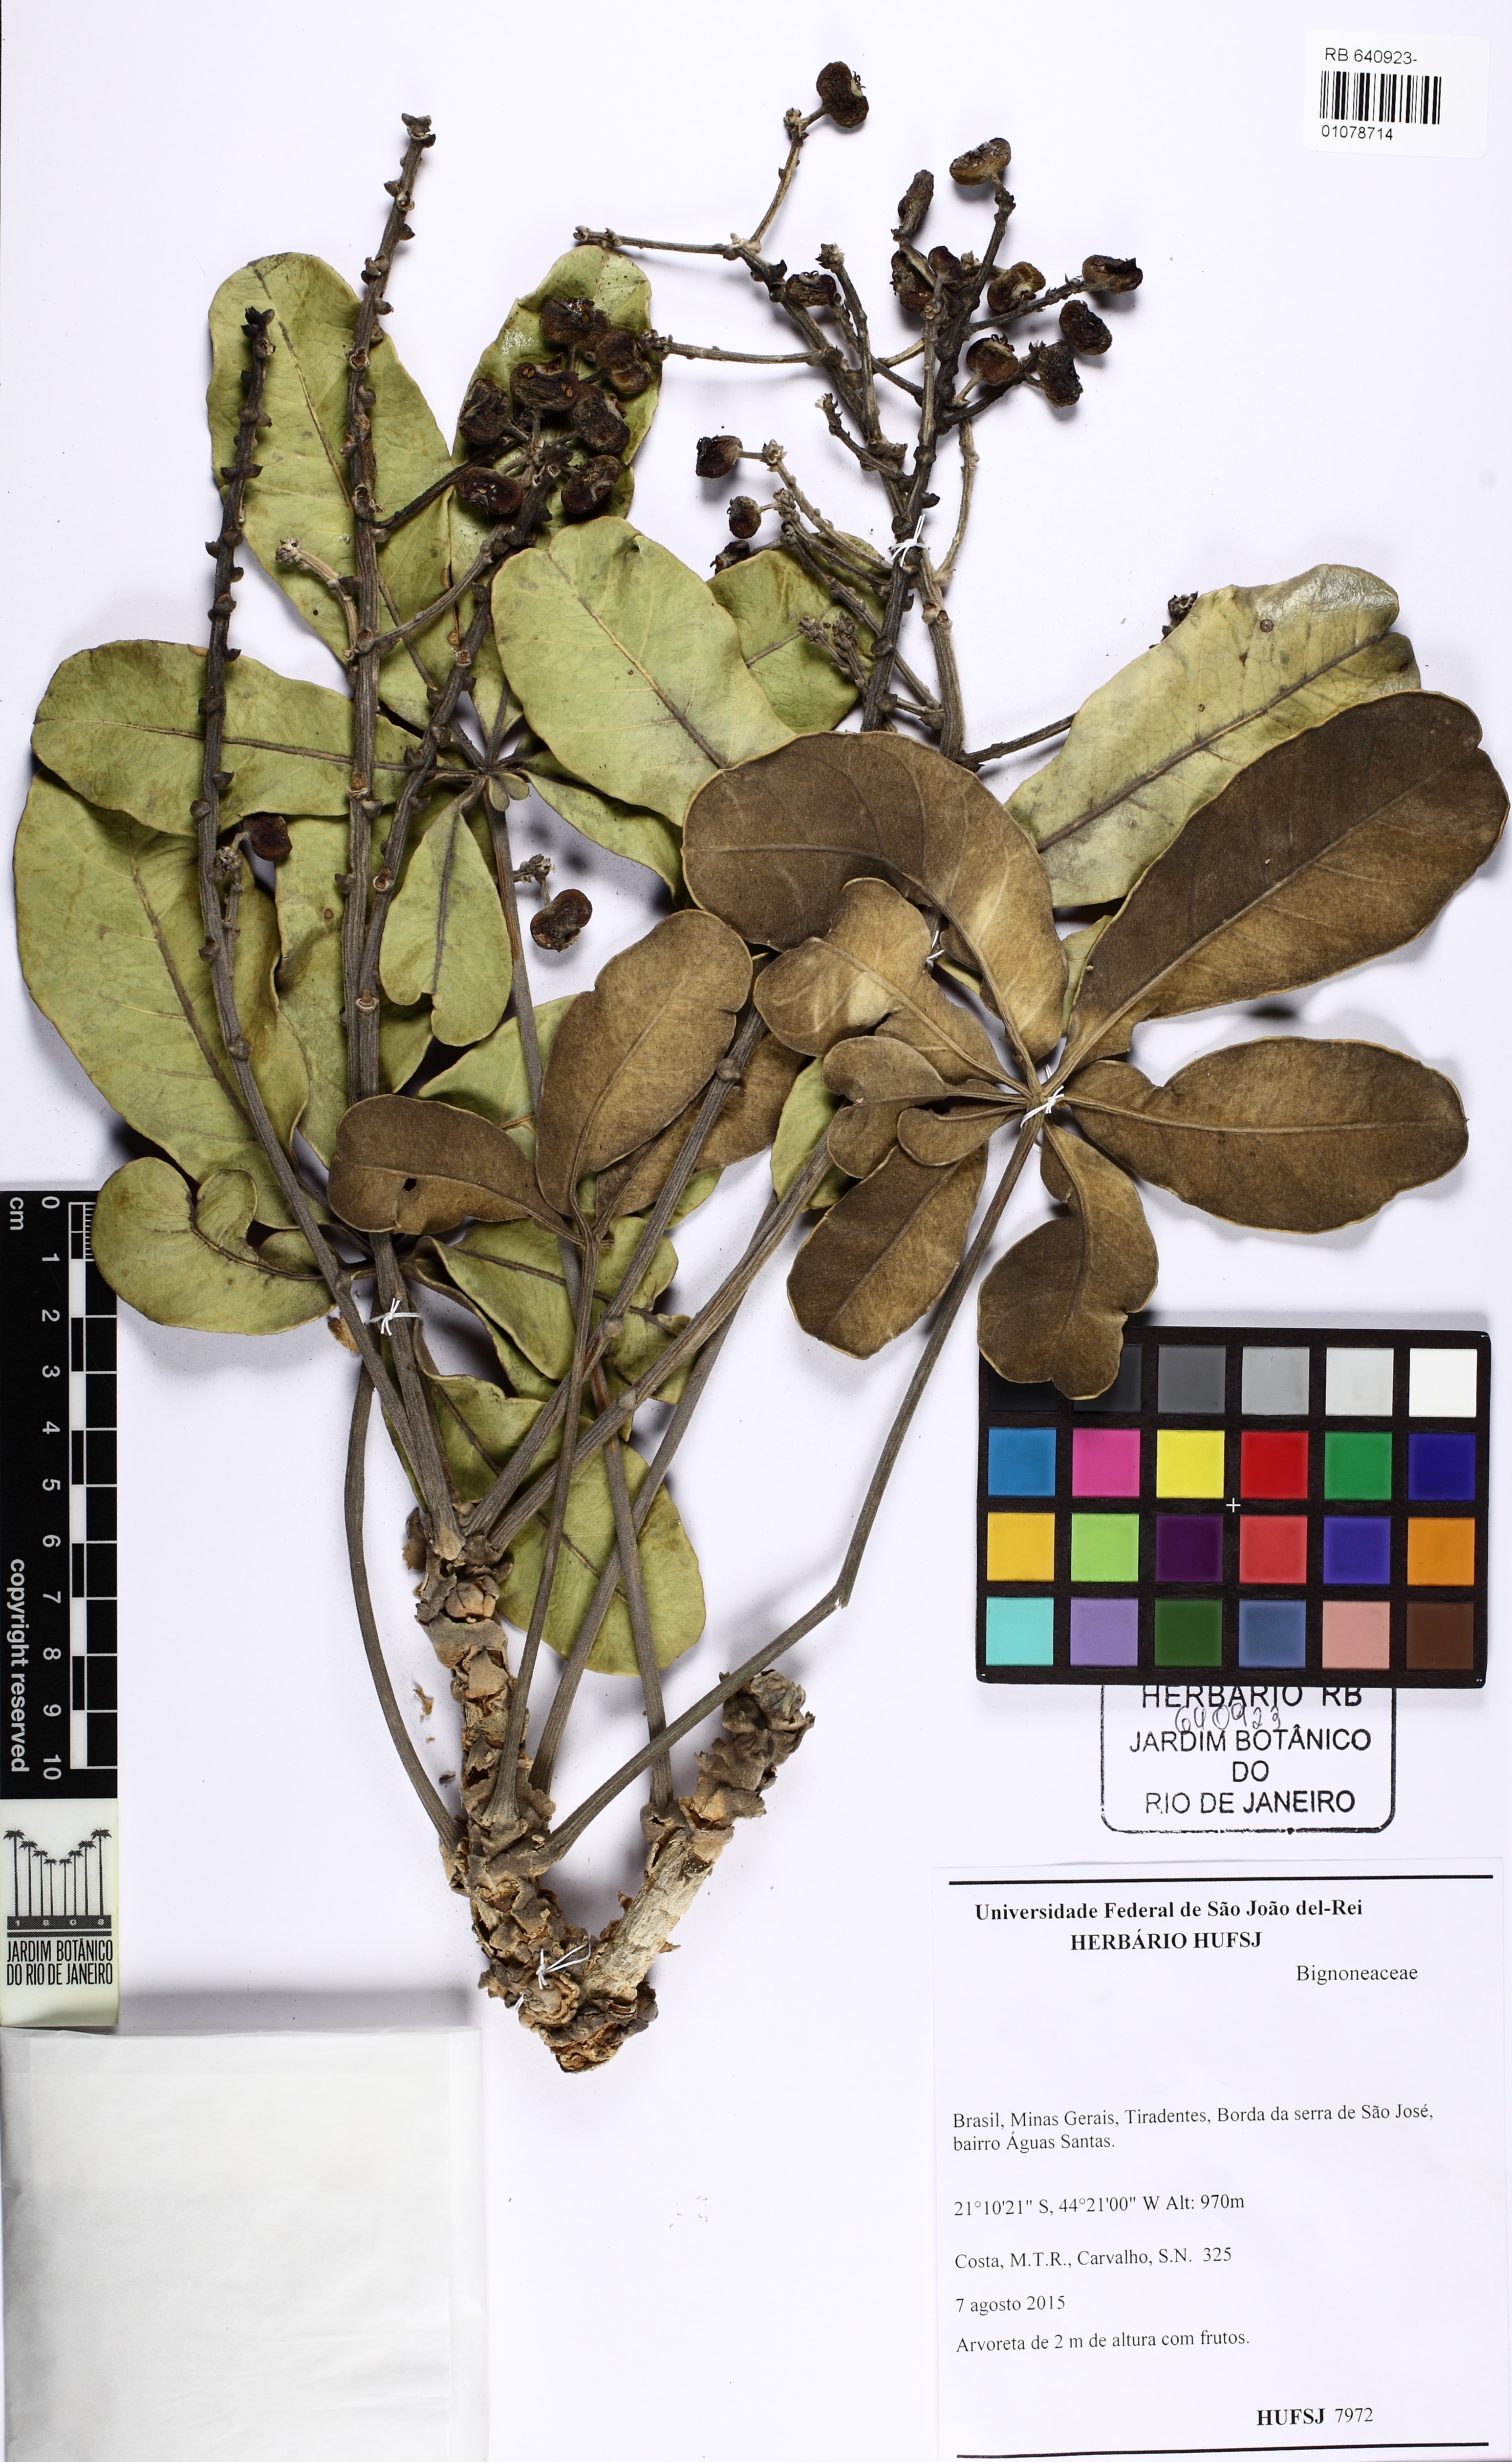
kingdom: Plantae
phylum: Tracheophyta
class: Magnoliopsida
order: Apiales
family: Araliaceae
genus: Didymopanax
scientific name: Didymopanax macrocarpus
